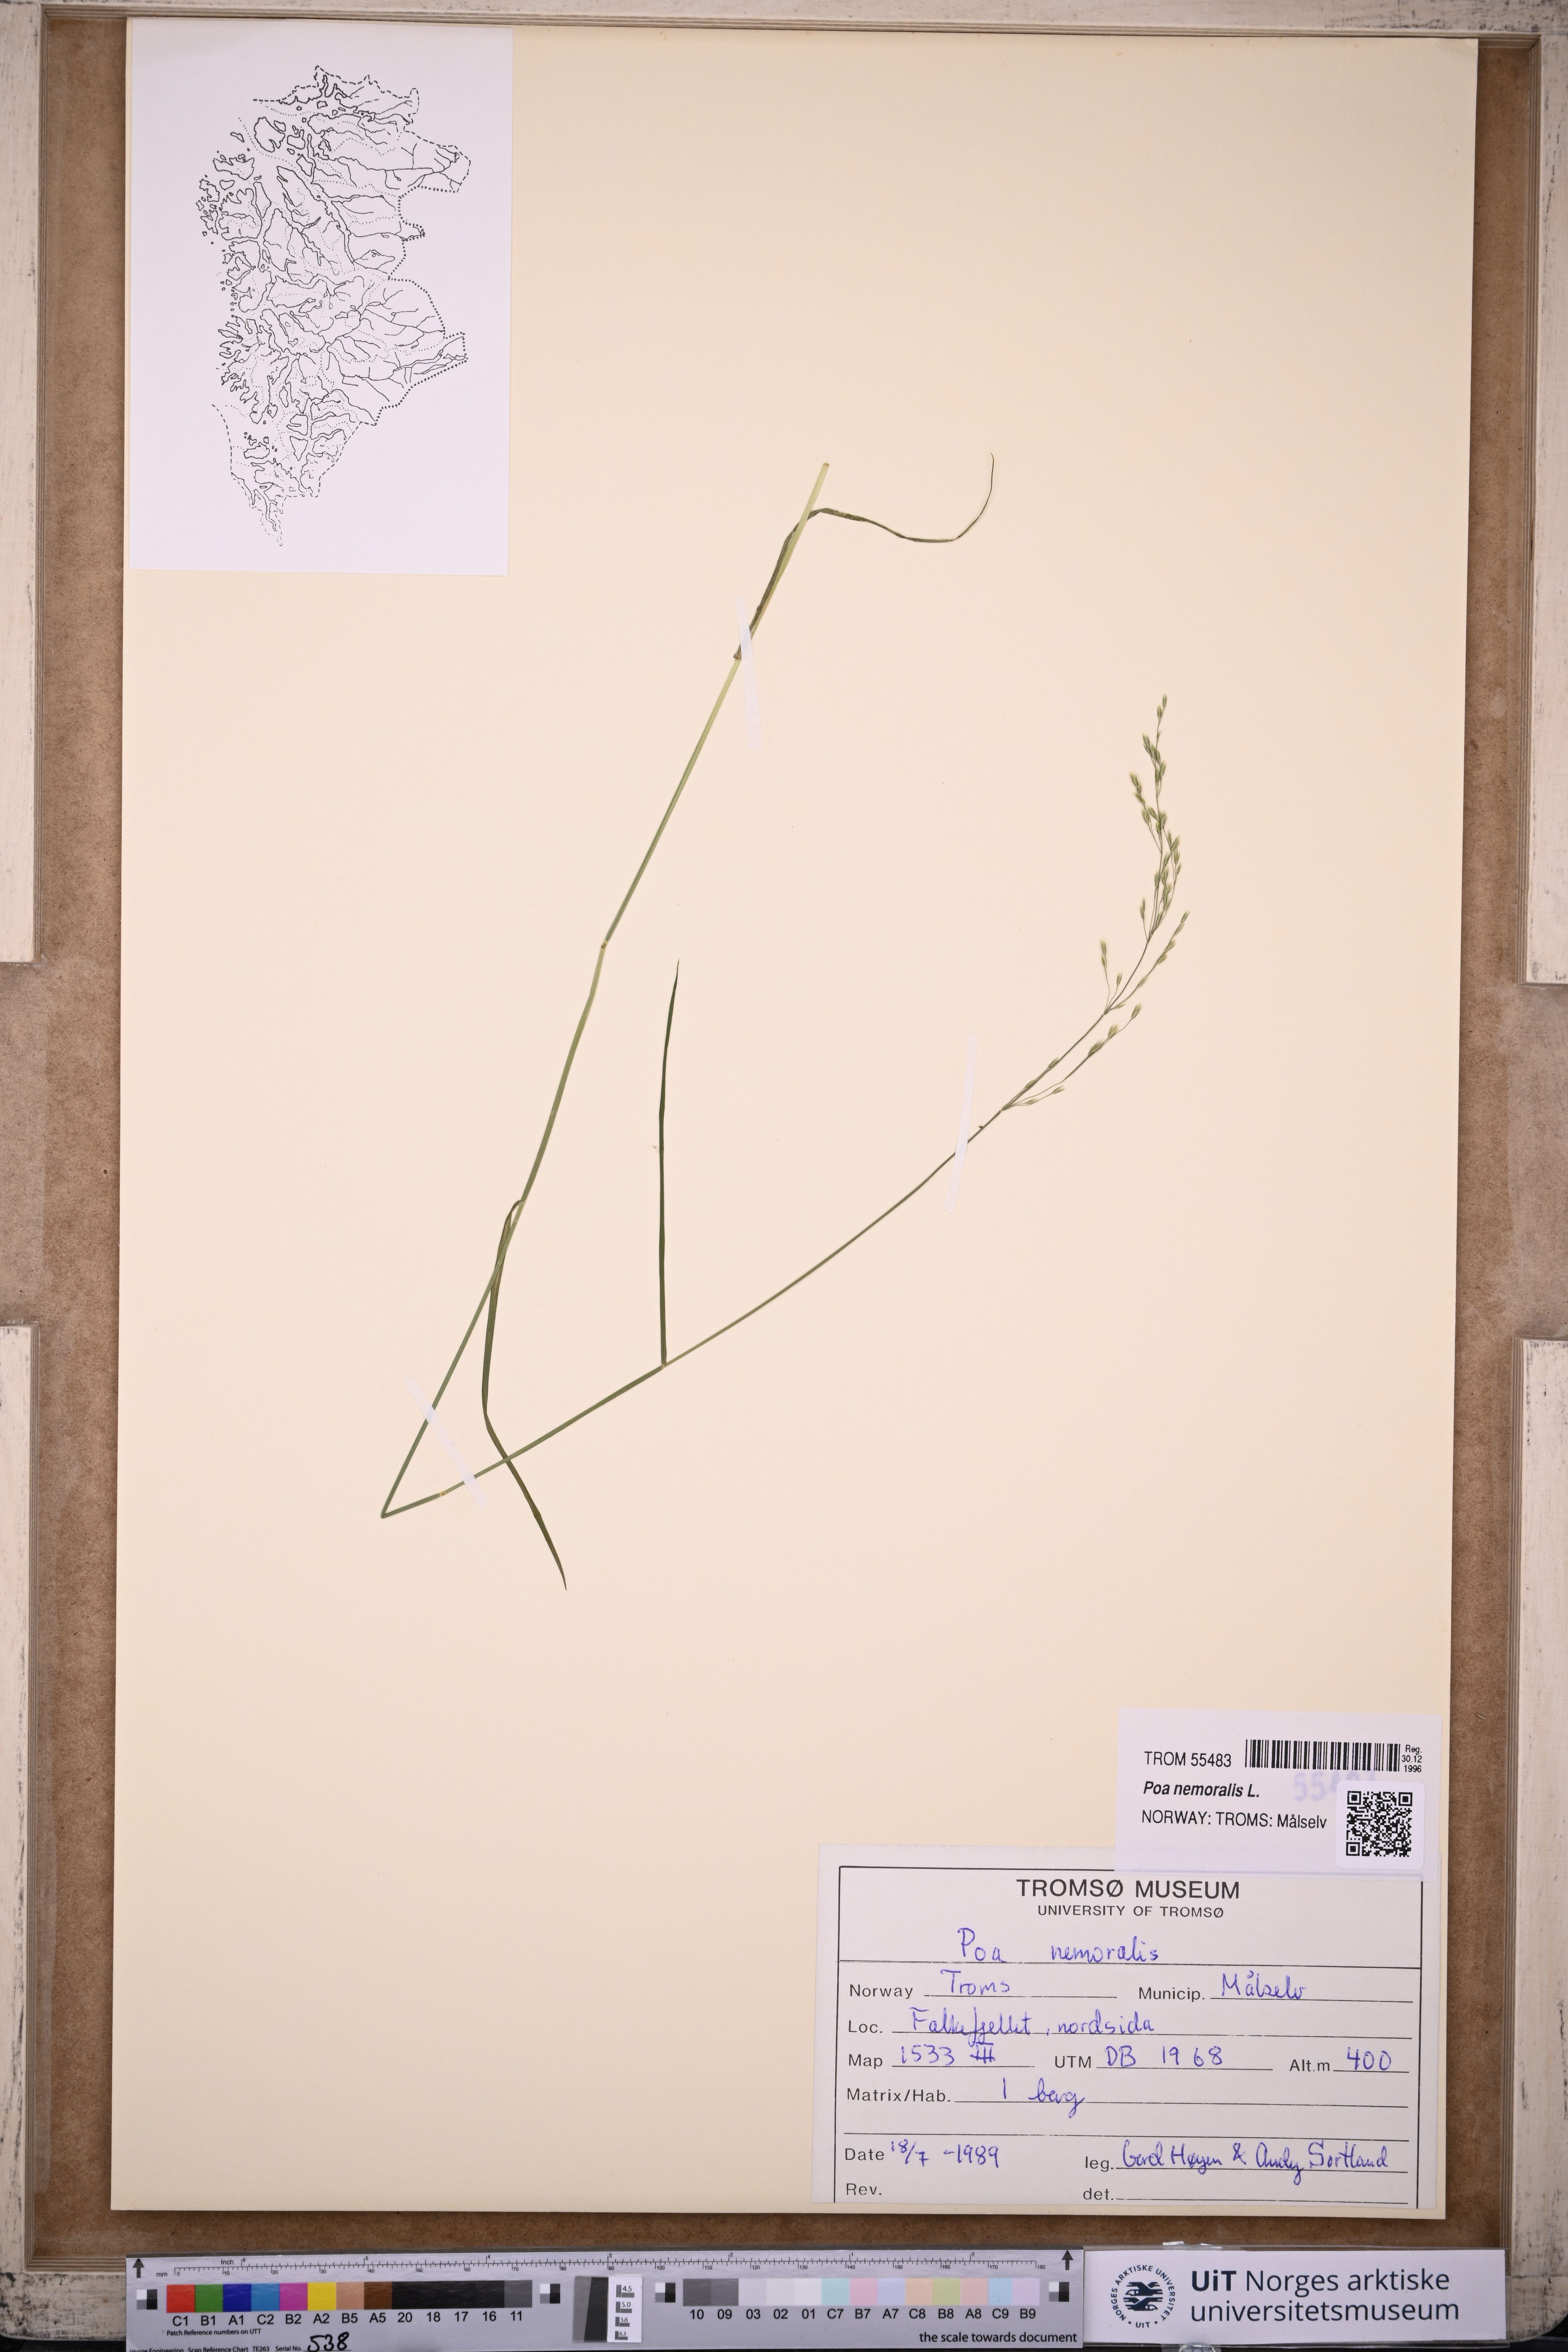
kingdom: Plantae
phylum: Tracheophyta
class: Liliopsida
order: Poales
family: Poaceae
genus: Poa
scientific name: Poa nemoralis
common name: Wood bluegrass
